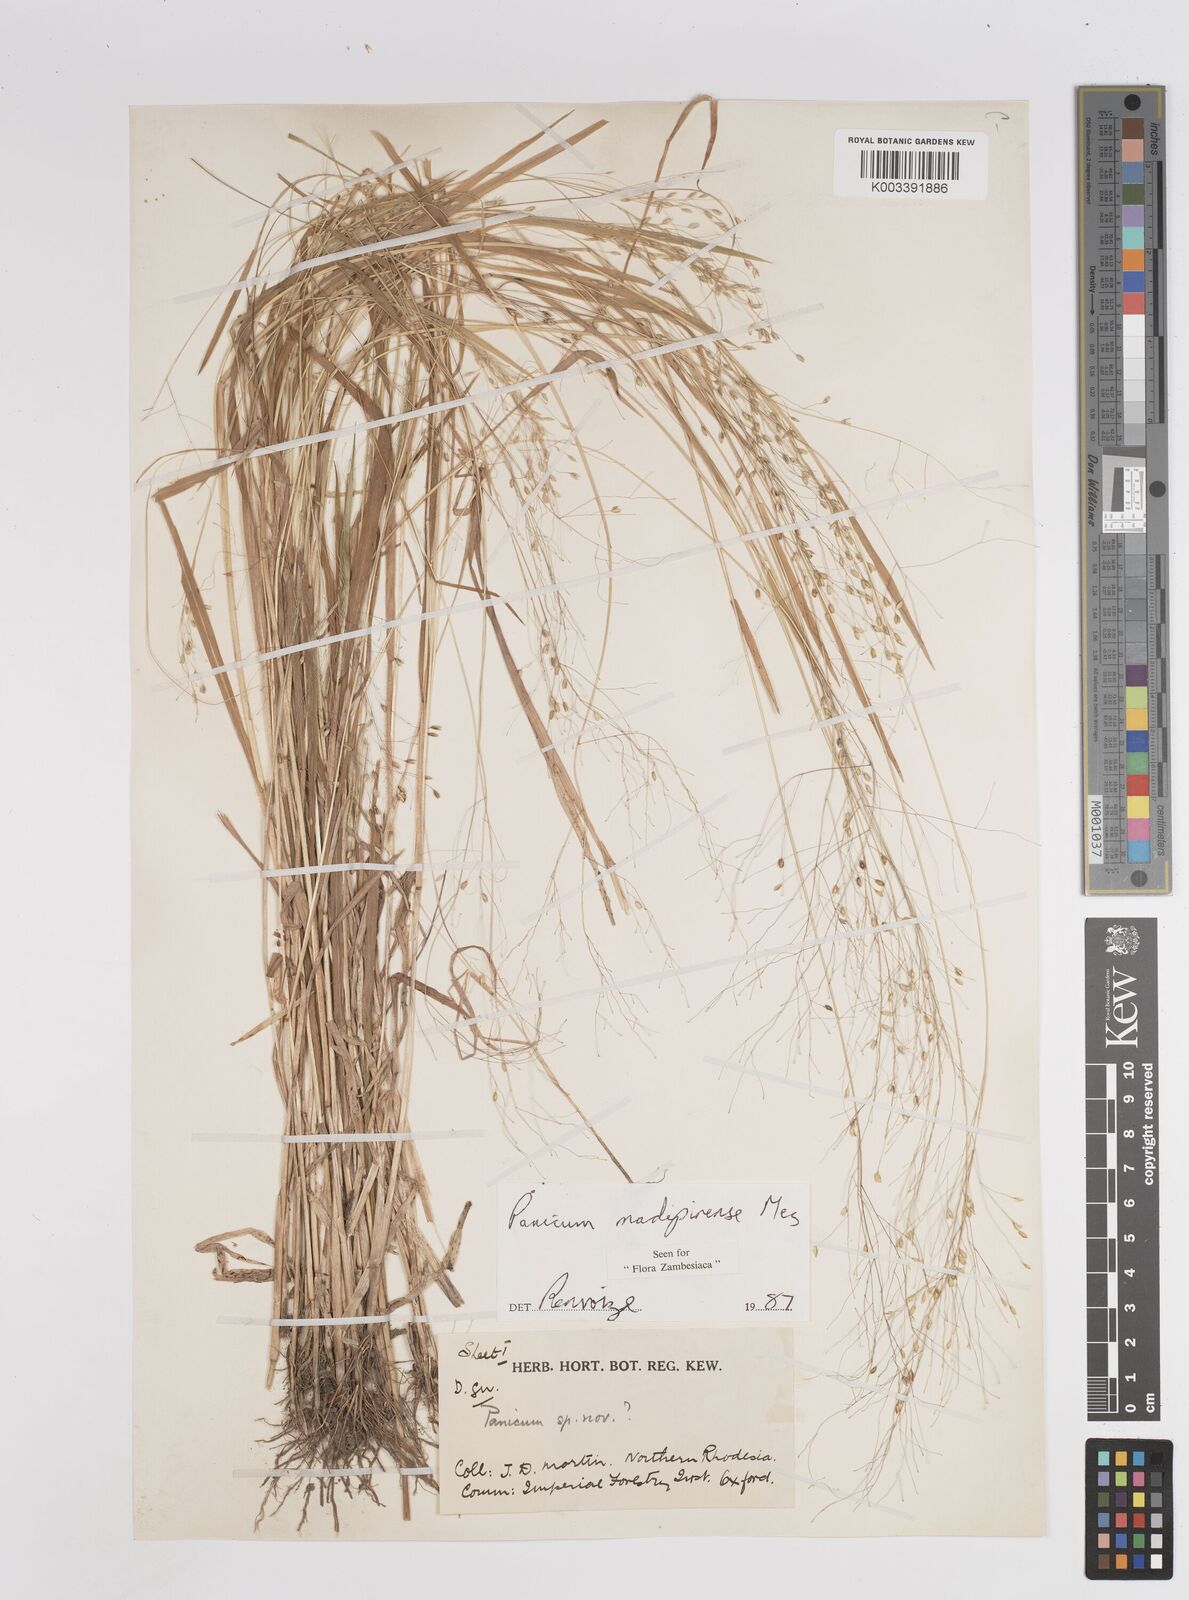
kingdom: Plantae
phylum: Tracheophyta
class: Liliopsida
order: Poales
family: Poaceae
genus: Panicum
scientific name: Panicum madipirense
